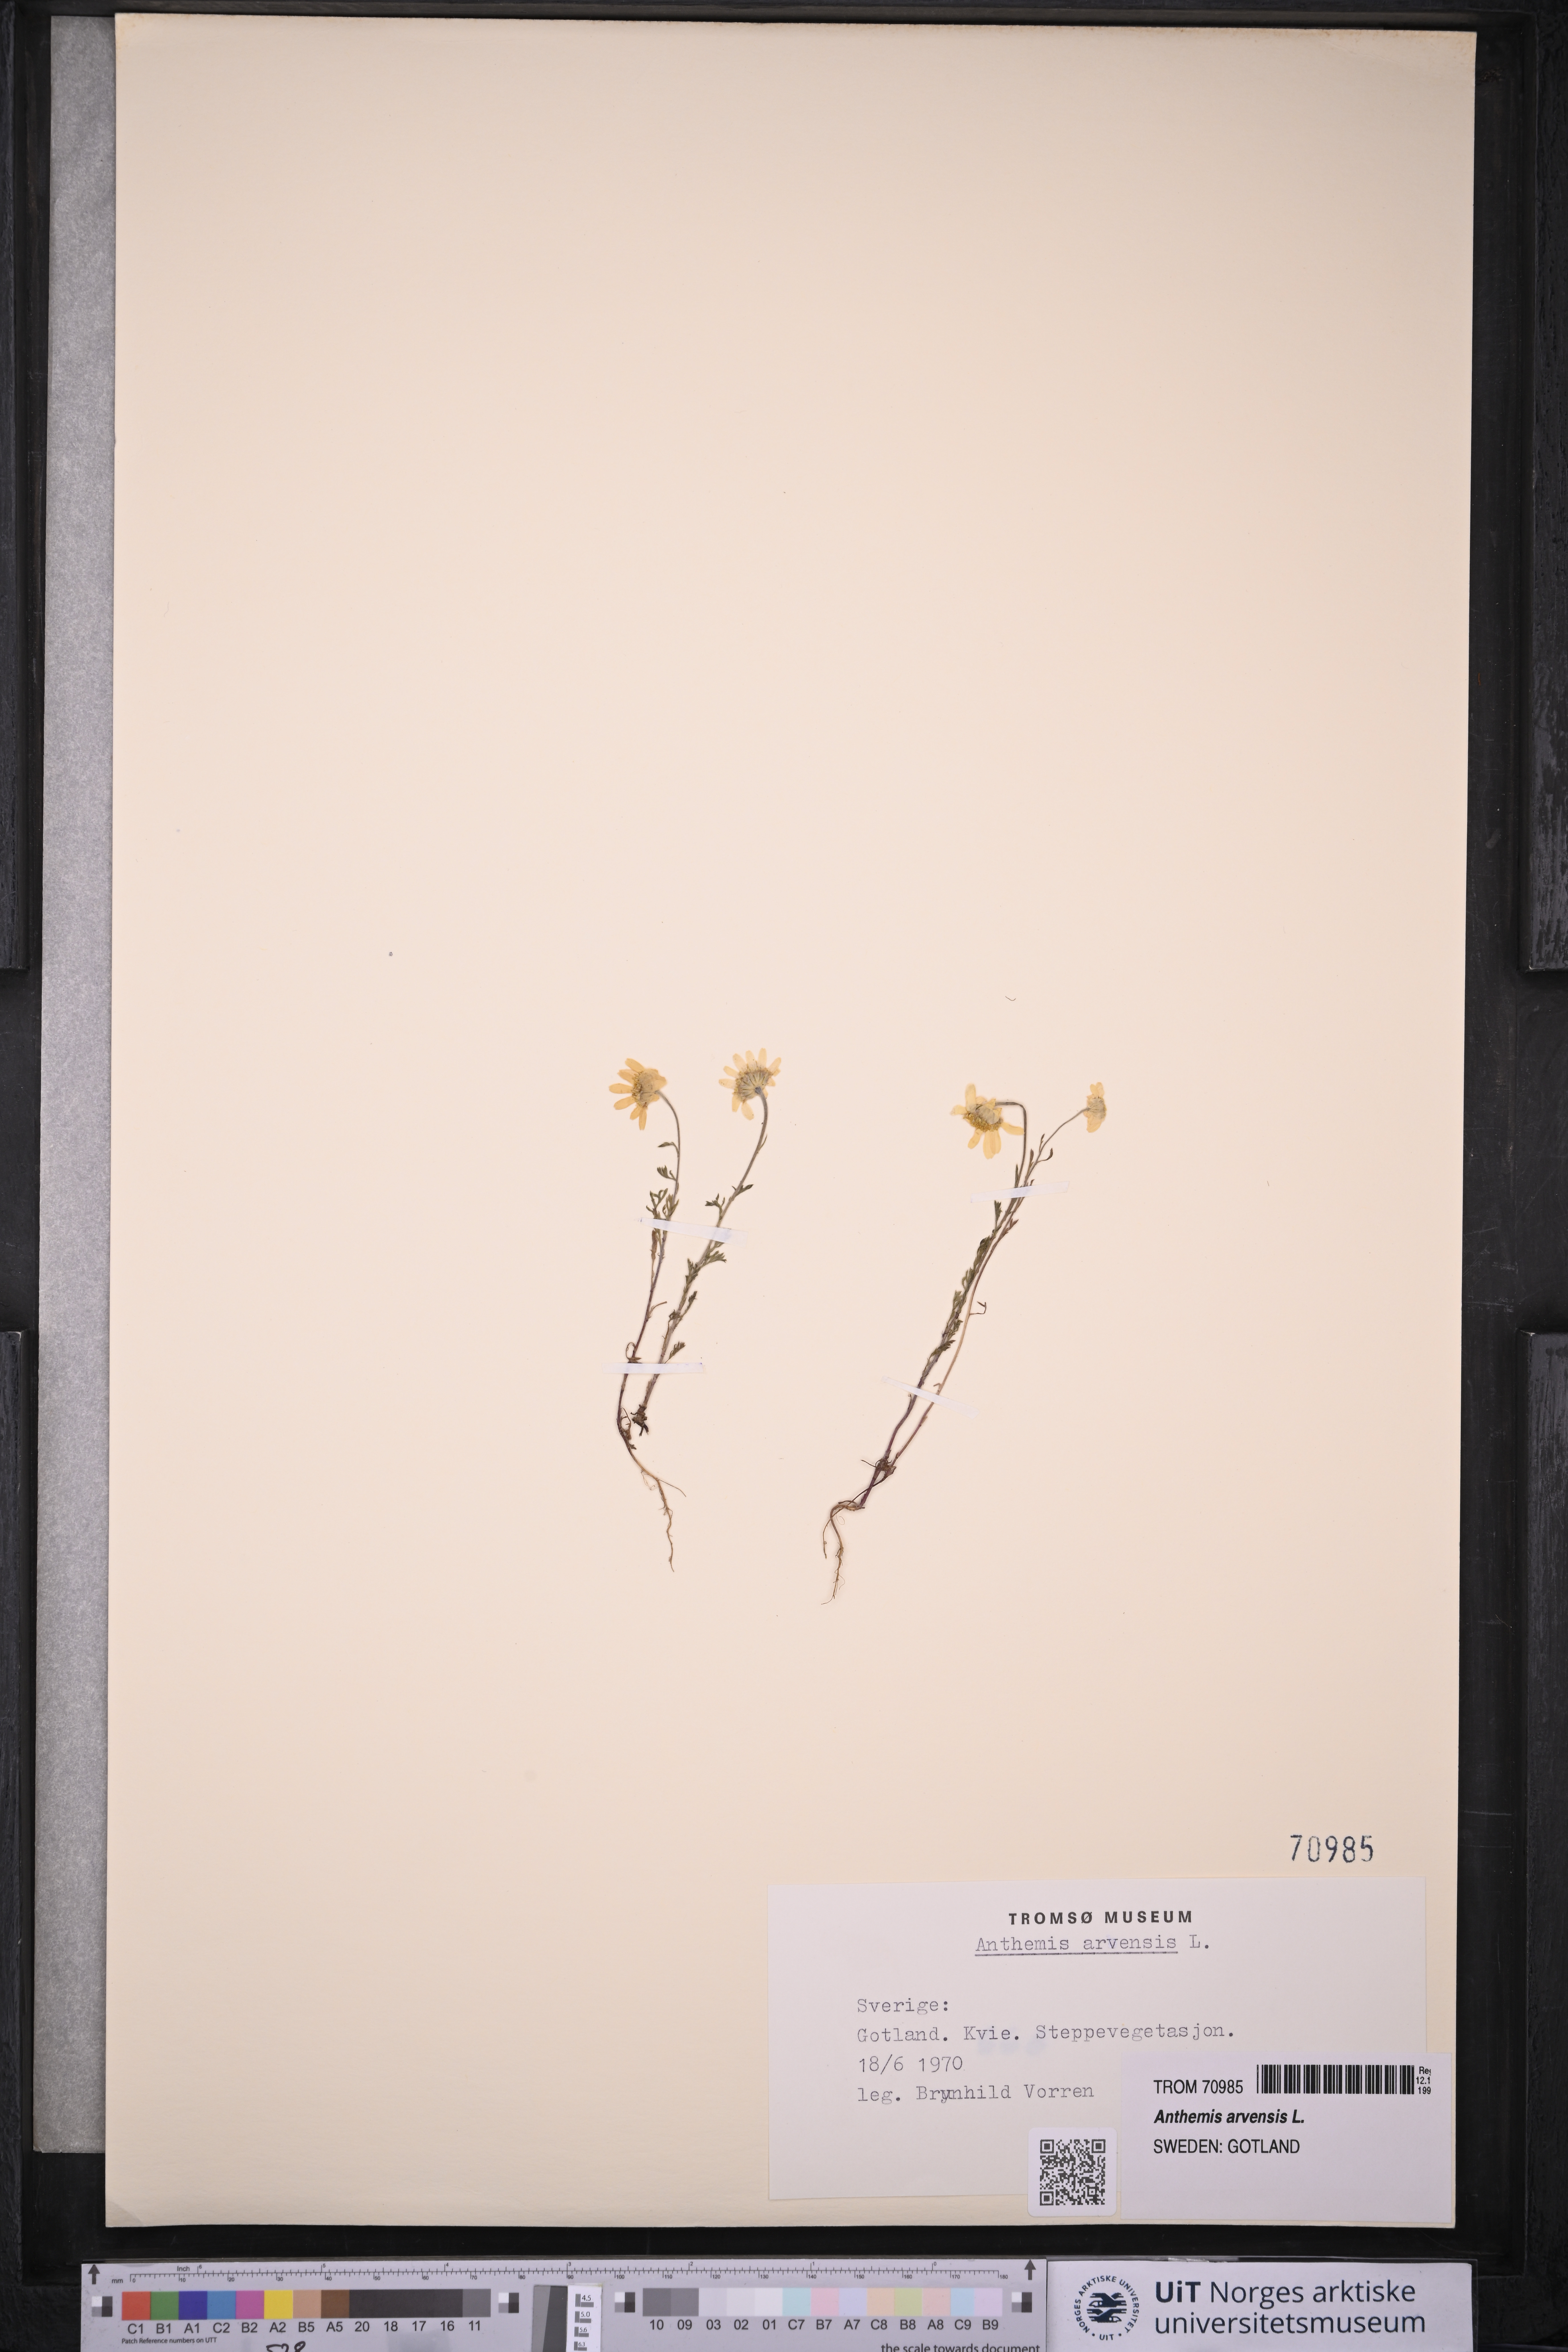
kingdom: Plantae
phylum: Tracheophyta
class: Magnoliopsida
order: Asterales
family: Asteraceae
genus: Anthemis
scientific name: Anthemis arvensis
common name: Corn chamomile
